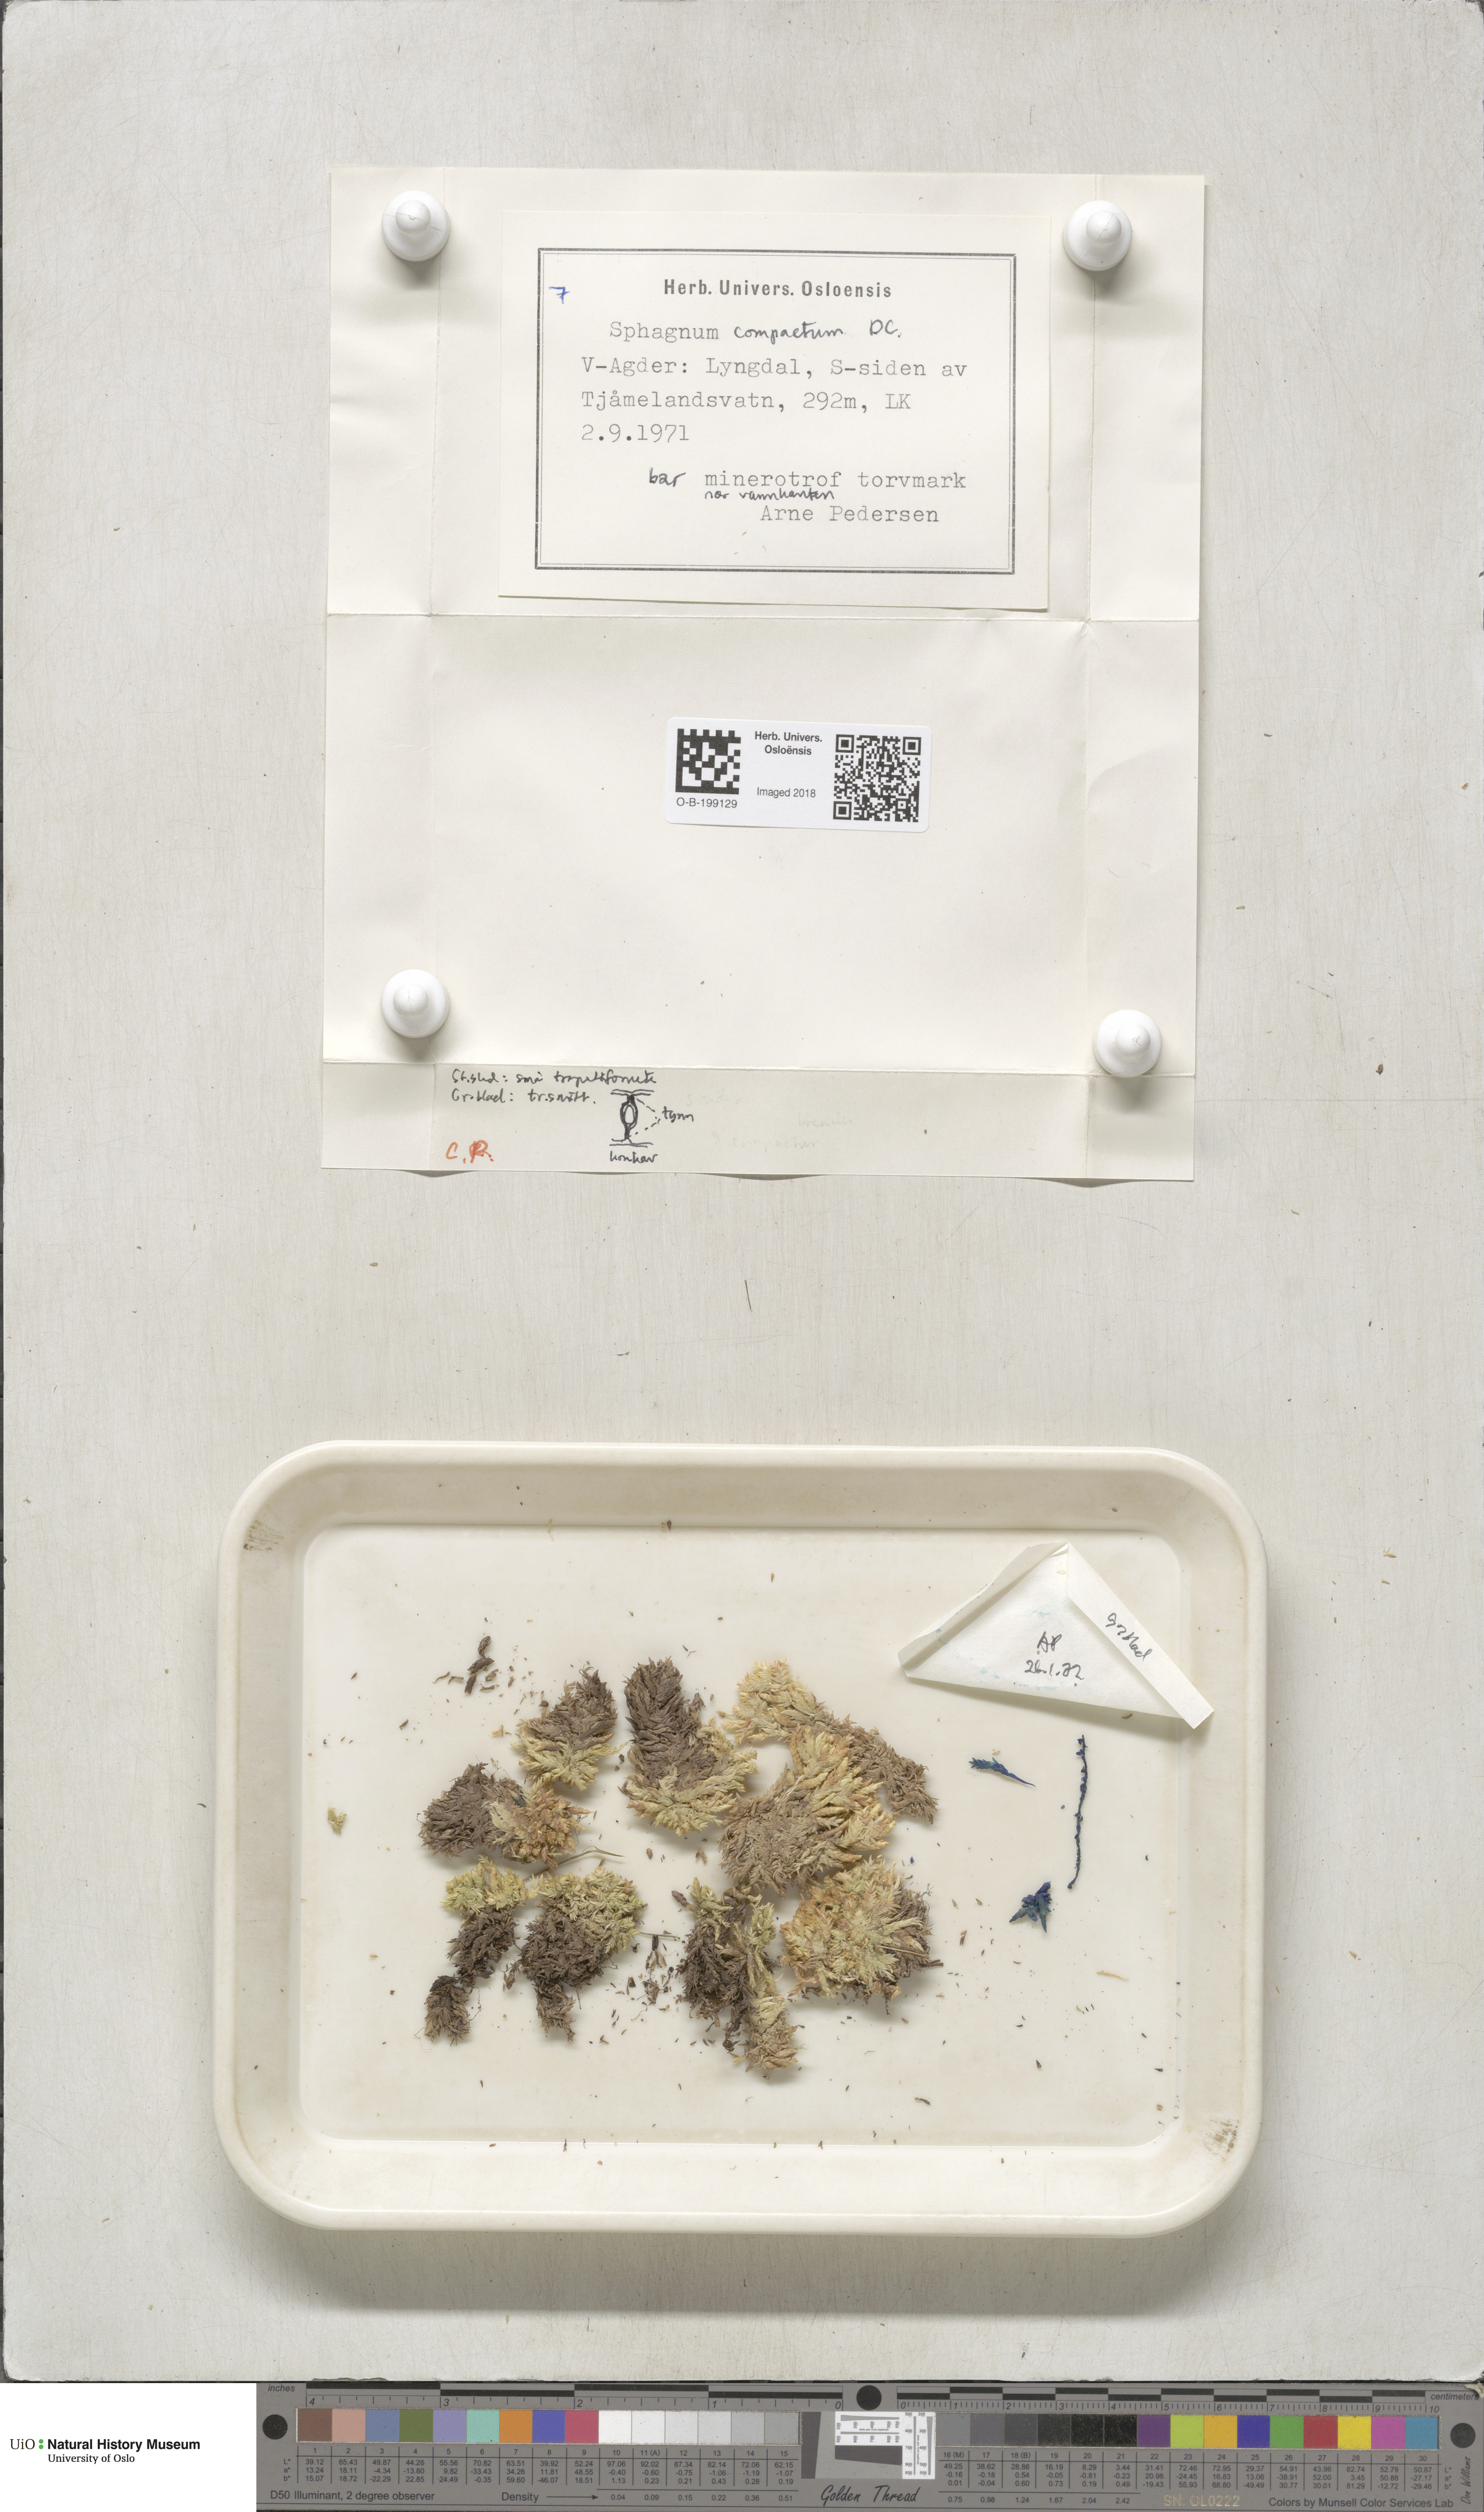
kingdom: Plantae
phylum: Bryophyta
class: Sphagnopsida
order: Sphagnales
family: Sphagnaceae
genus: Sphagnum
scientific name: Sphagnum compactum
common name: Compact peat moss
